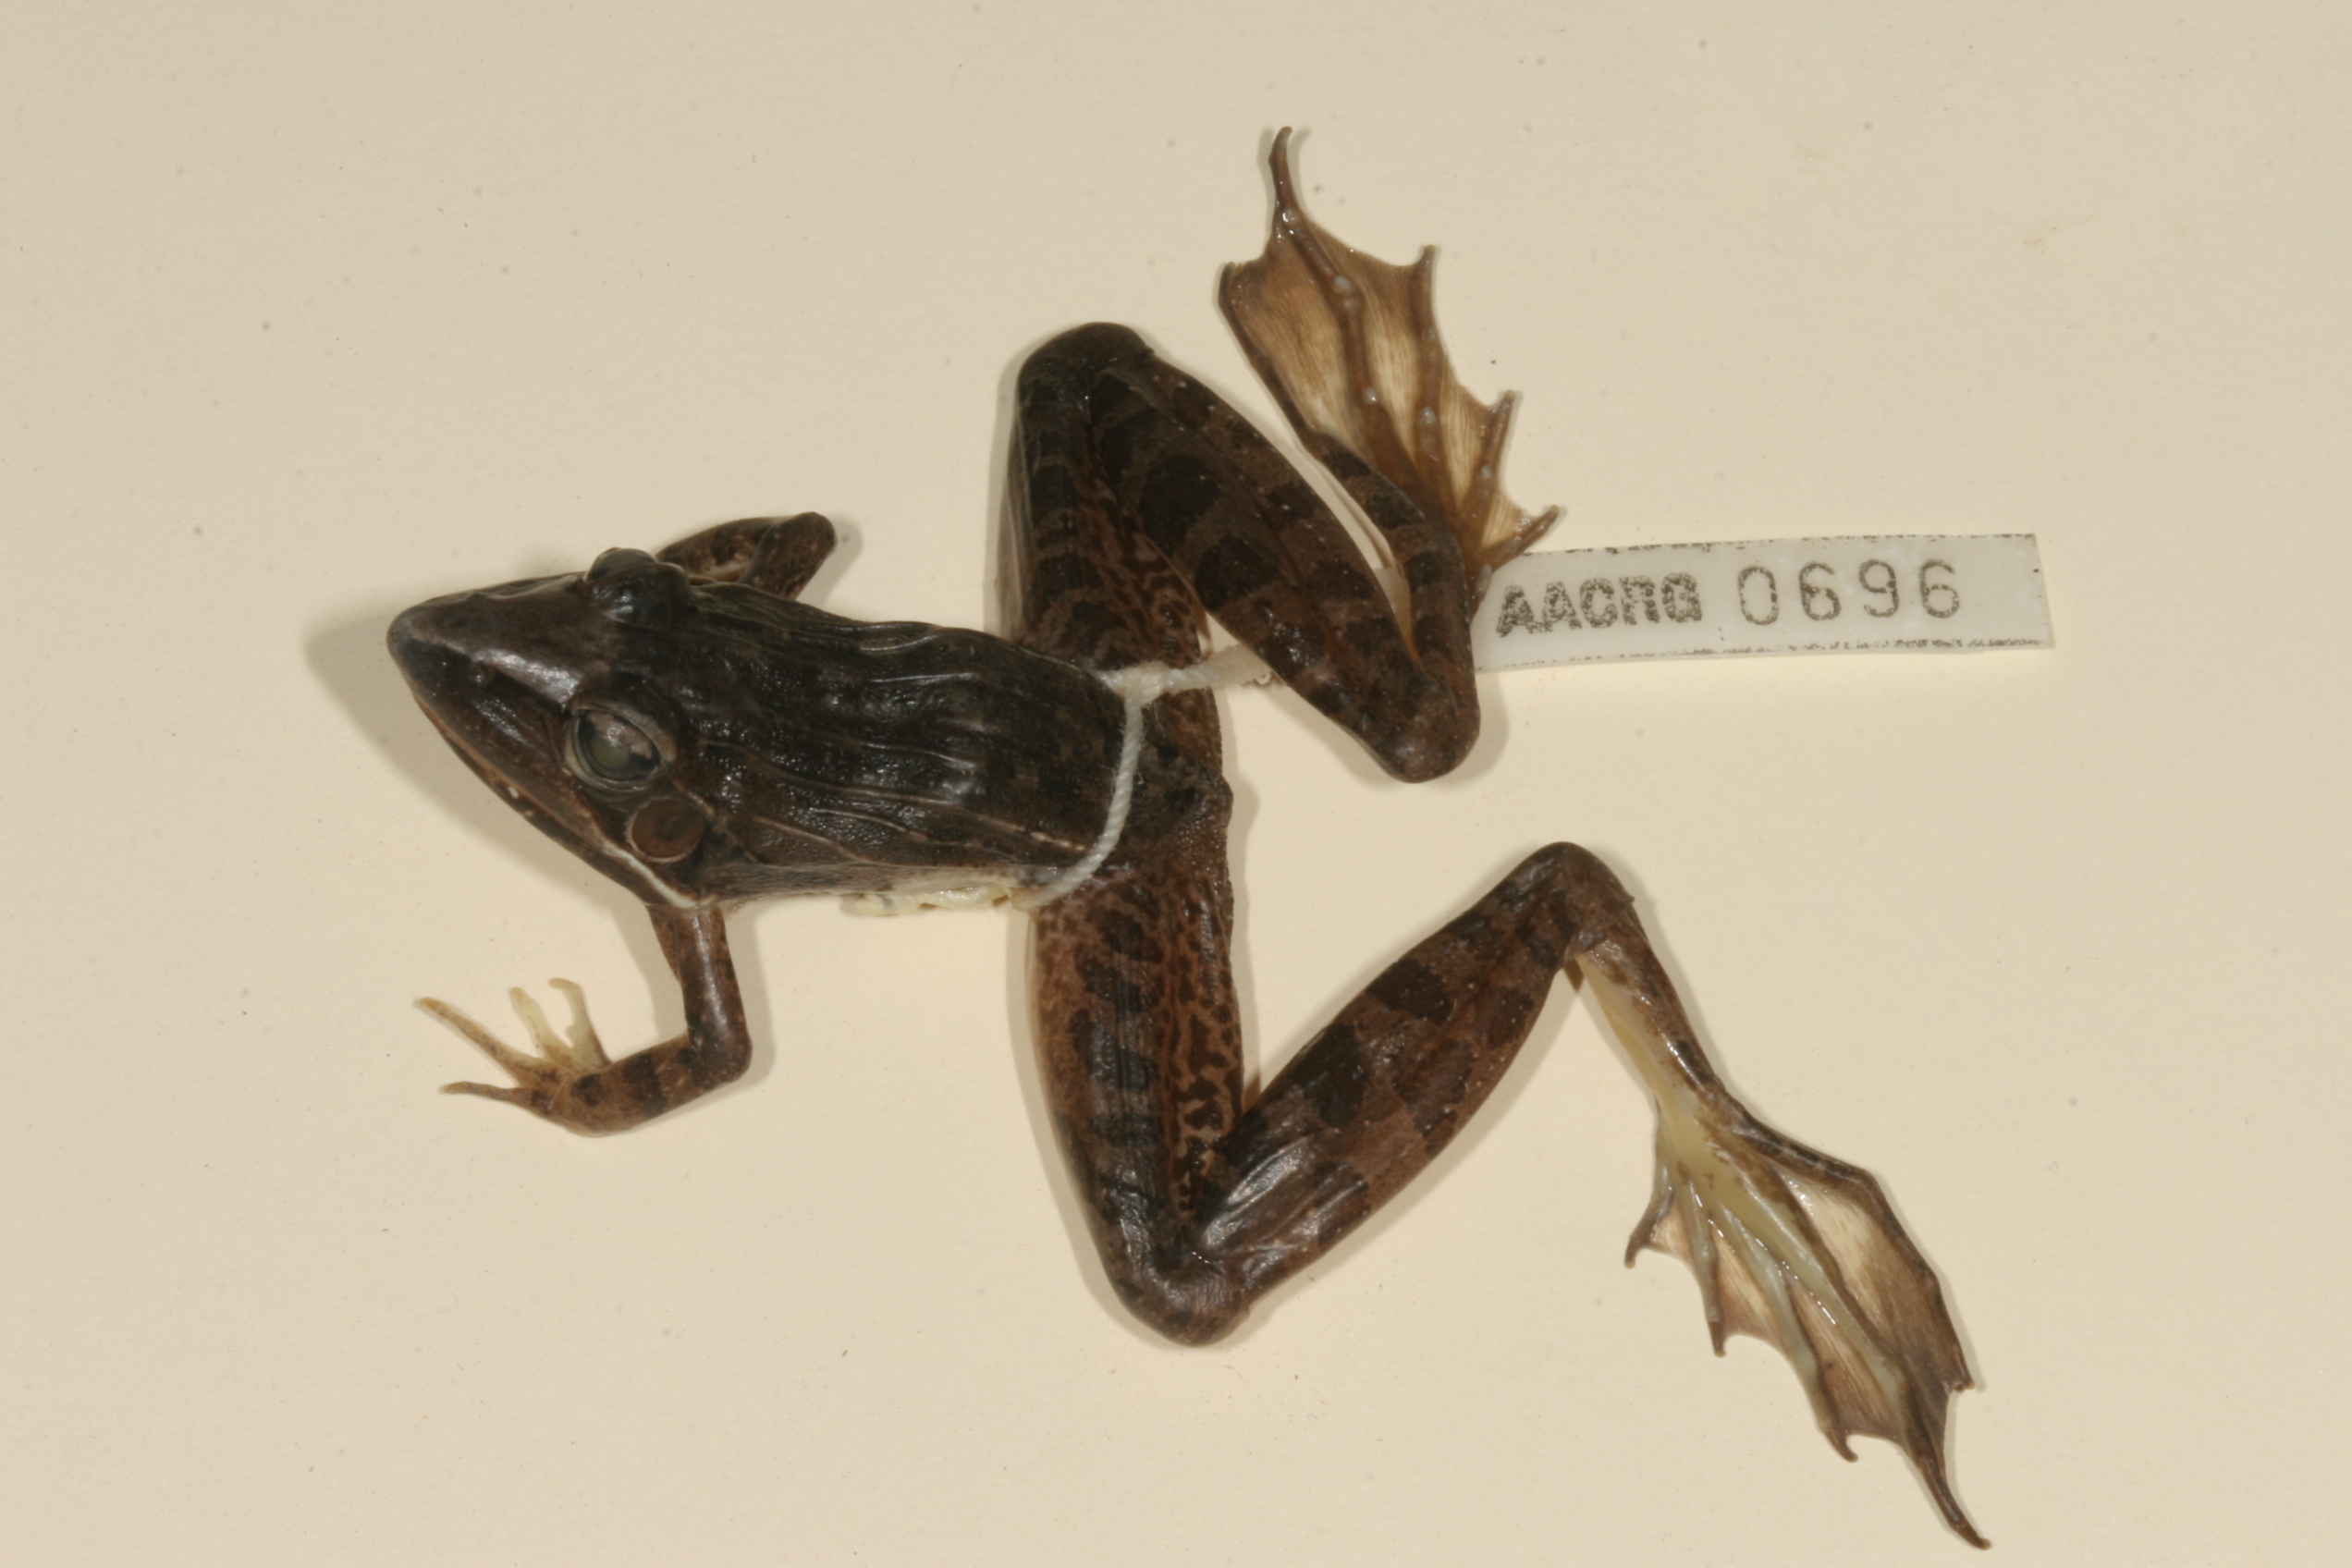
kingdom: Animalia
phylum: Chordata
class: Amphibia
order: Anura
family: Ptychadenidae
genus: Ptychadena
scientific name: Ptychadena oxyrhynchus
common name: Sharp-nosed ridged frog
